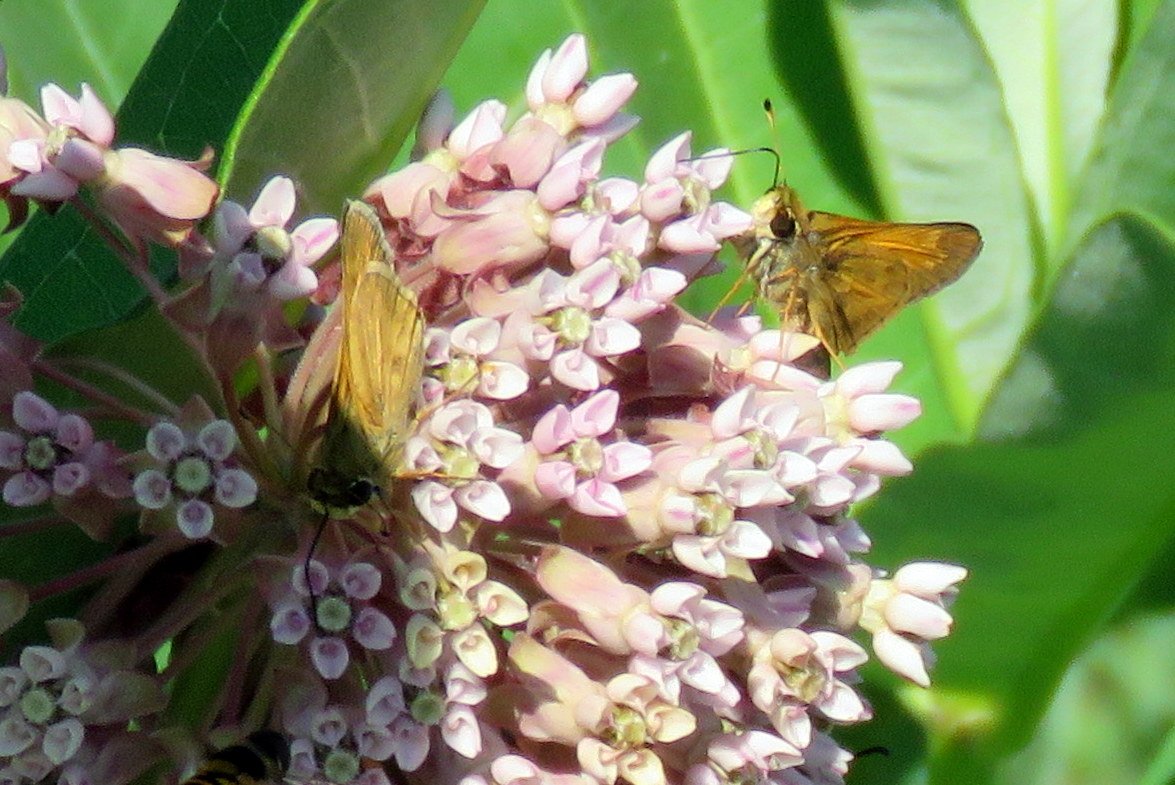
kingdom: Animalia
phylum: Arthropoda
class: Insecta
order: Lepidoptera
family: Hesperiidae
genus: Atalopedes
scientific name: Atalopedes campestris
